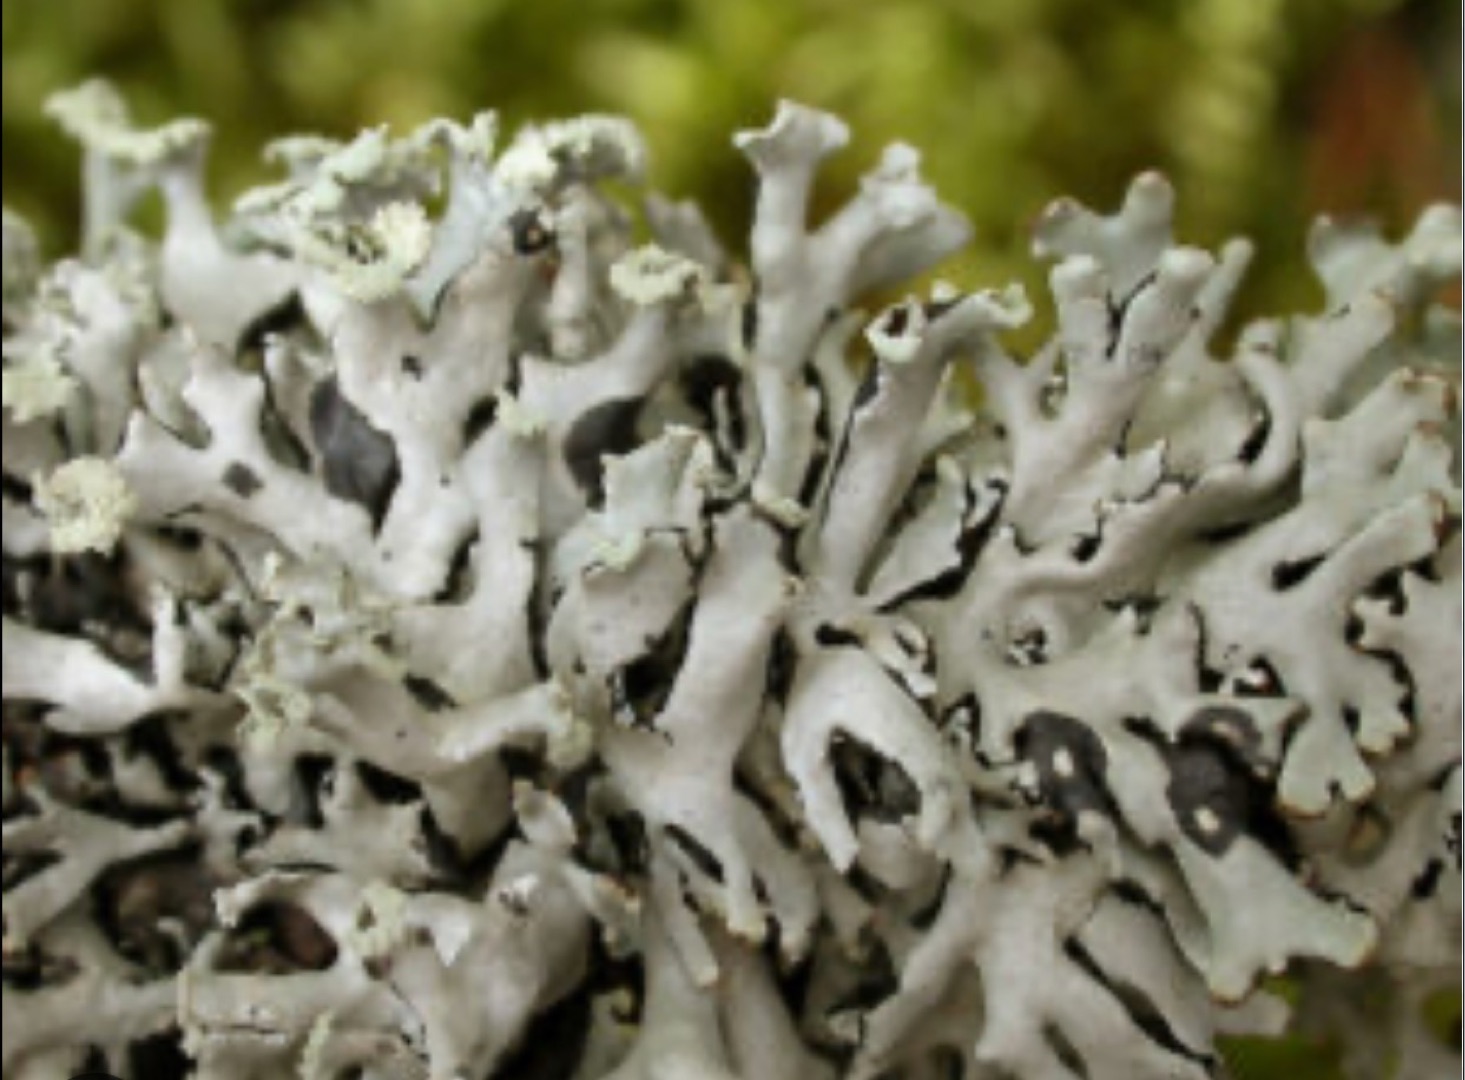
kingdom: Fungi
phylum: Ascomycota
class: Lecanoromycetes
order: Lecanorales
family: Parmeliaceae
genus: Hypogymnia
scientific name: Hypogymnia physodes
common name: Almindelig kvistlav
